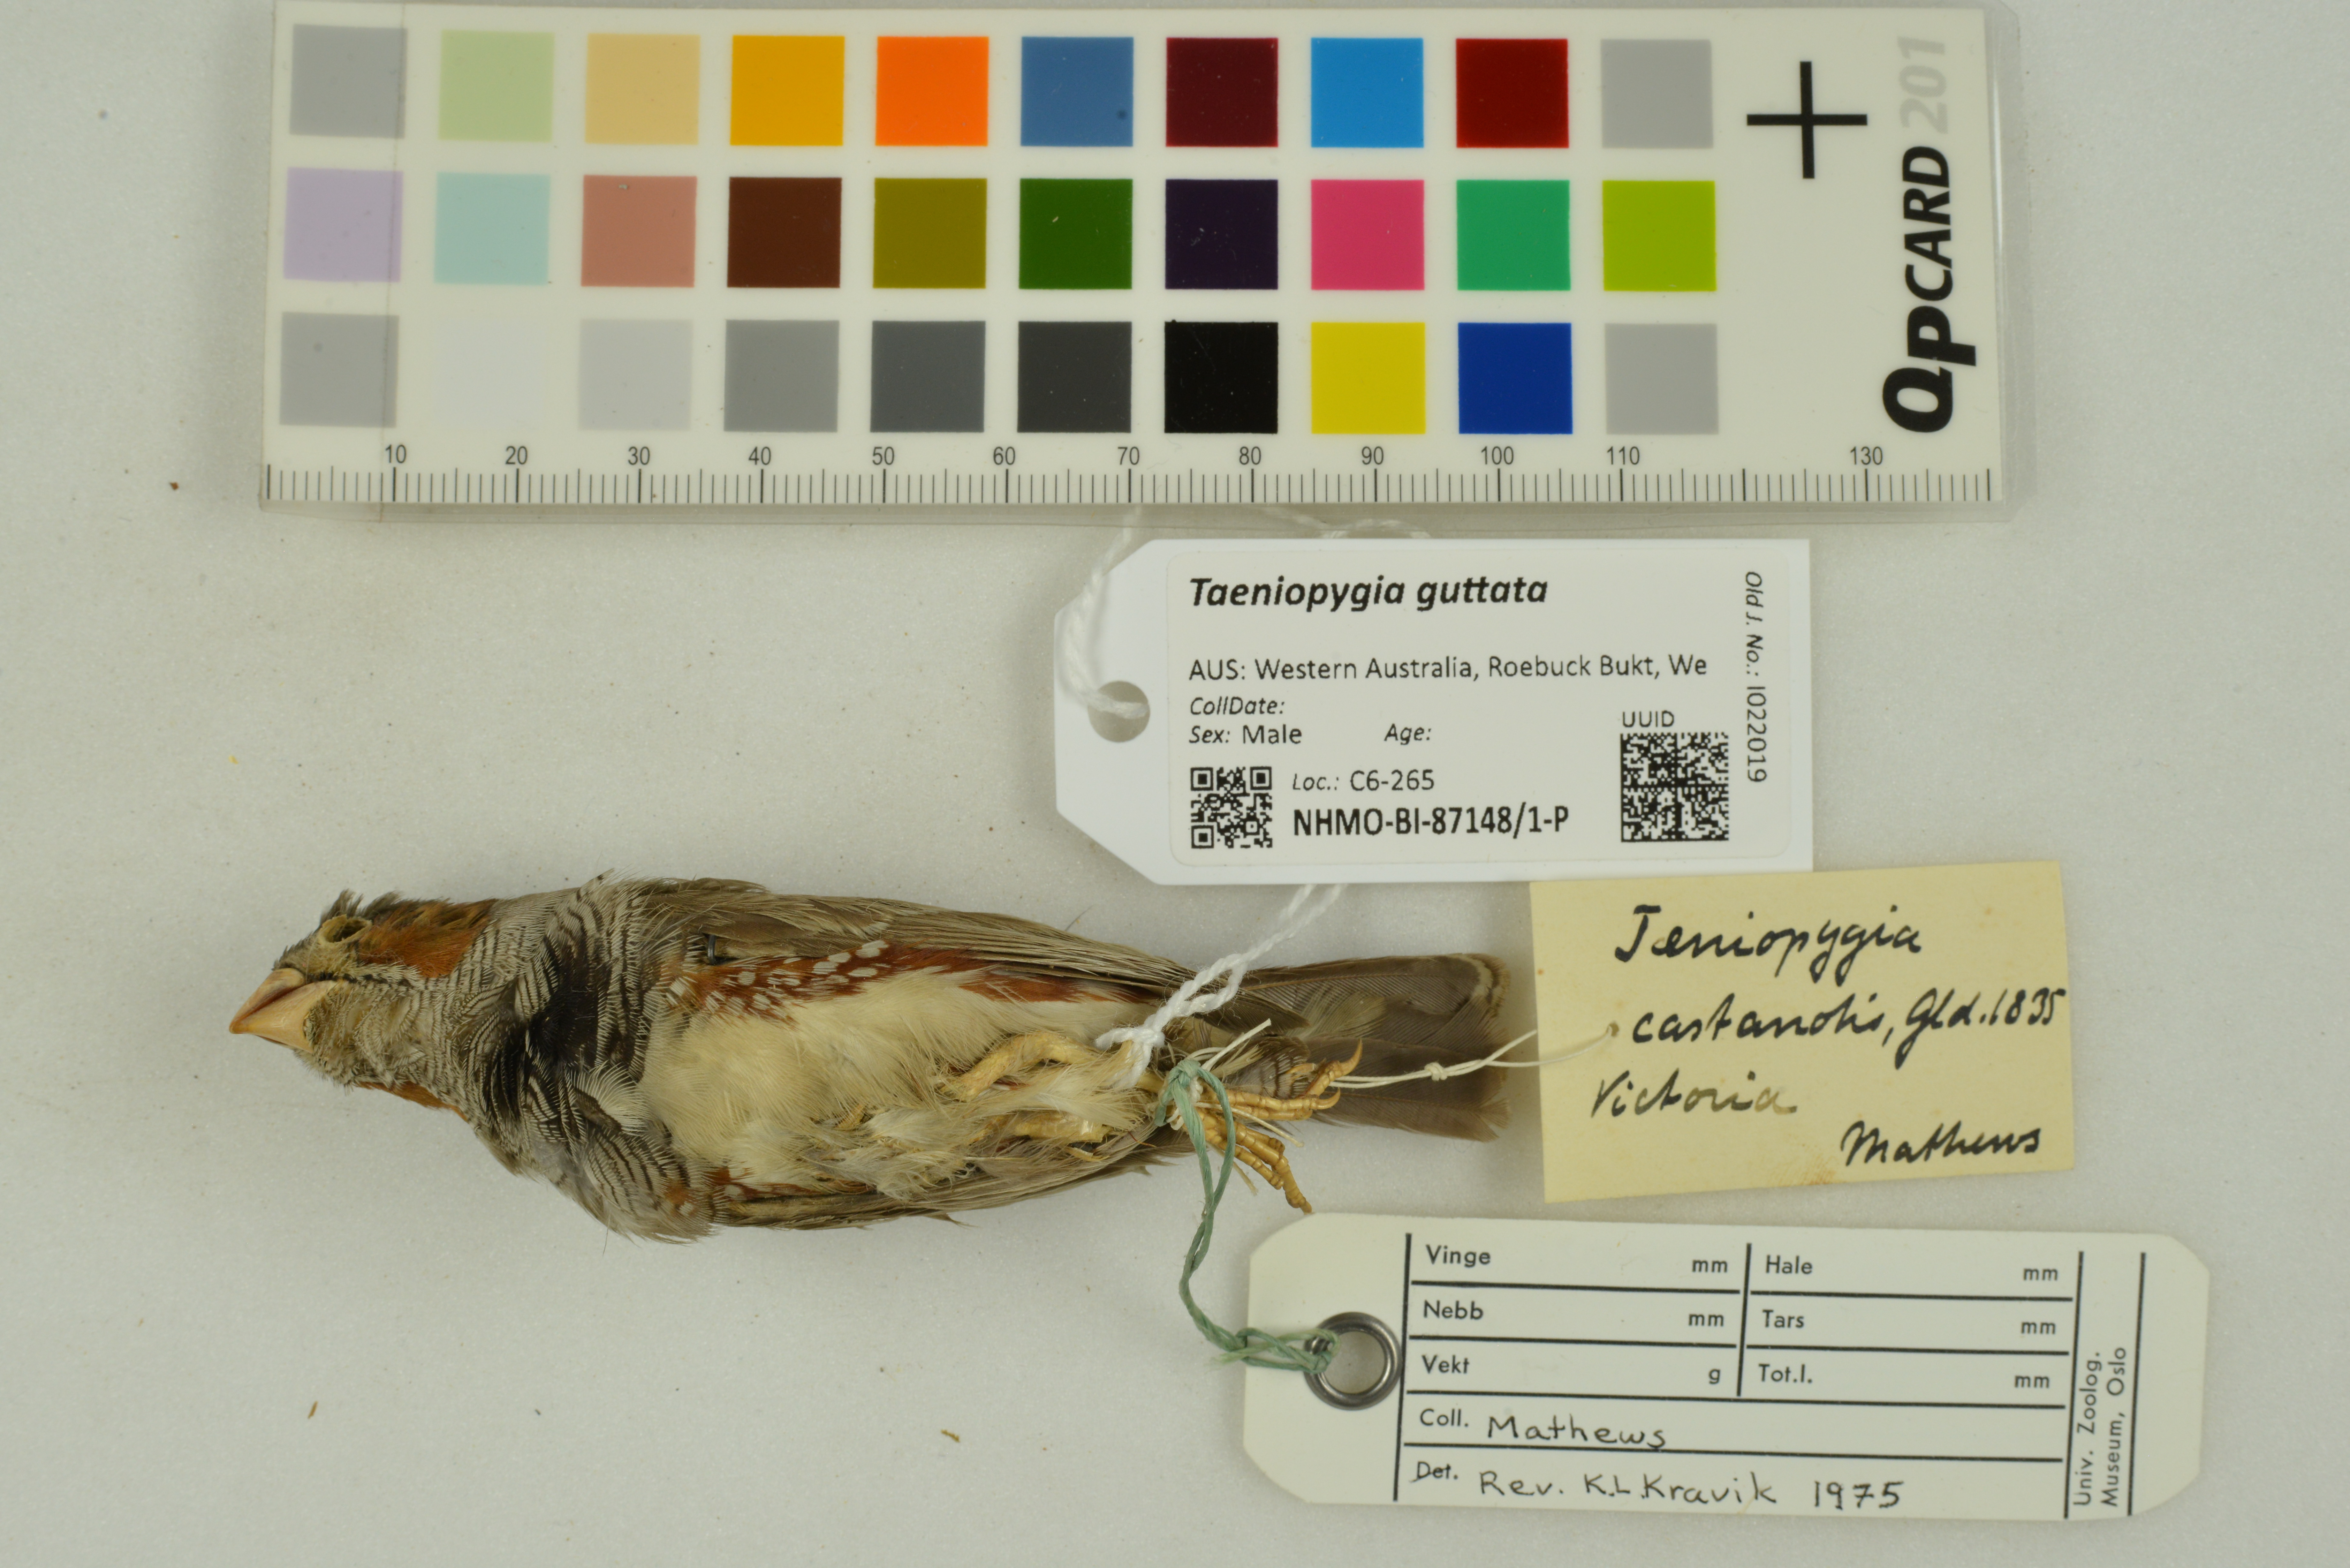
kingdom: Animalia
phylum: Chordata
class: Aves
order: Passeriformes
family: Estrildidae
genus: Taeniopygia
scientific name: Taeniopygia guttata
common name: Zebra finch
